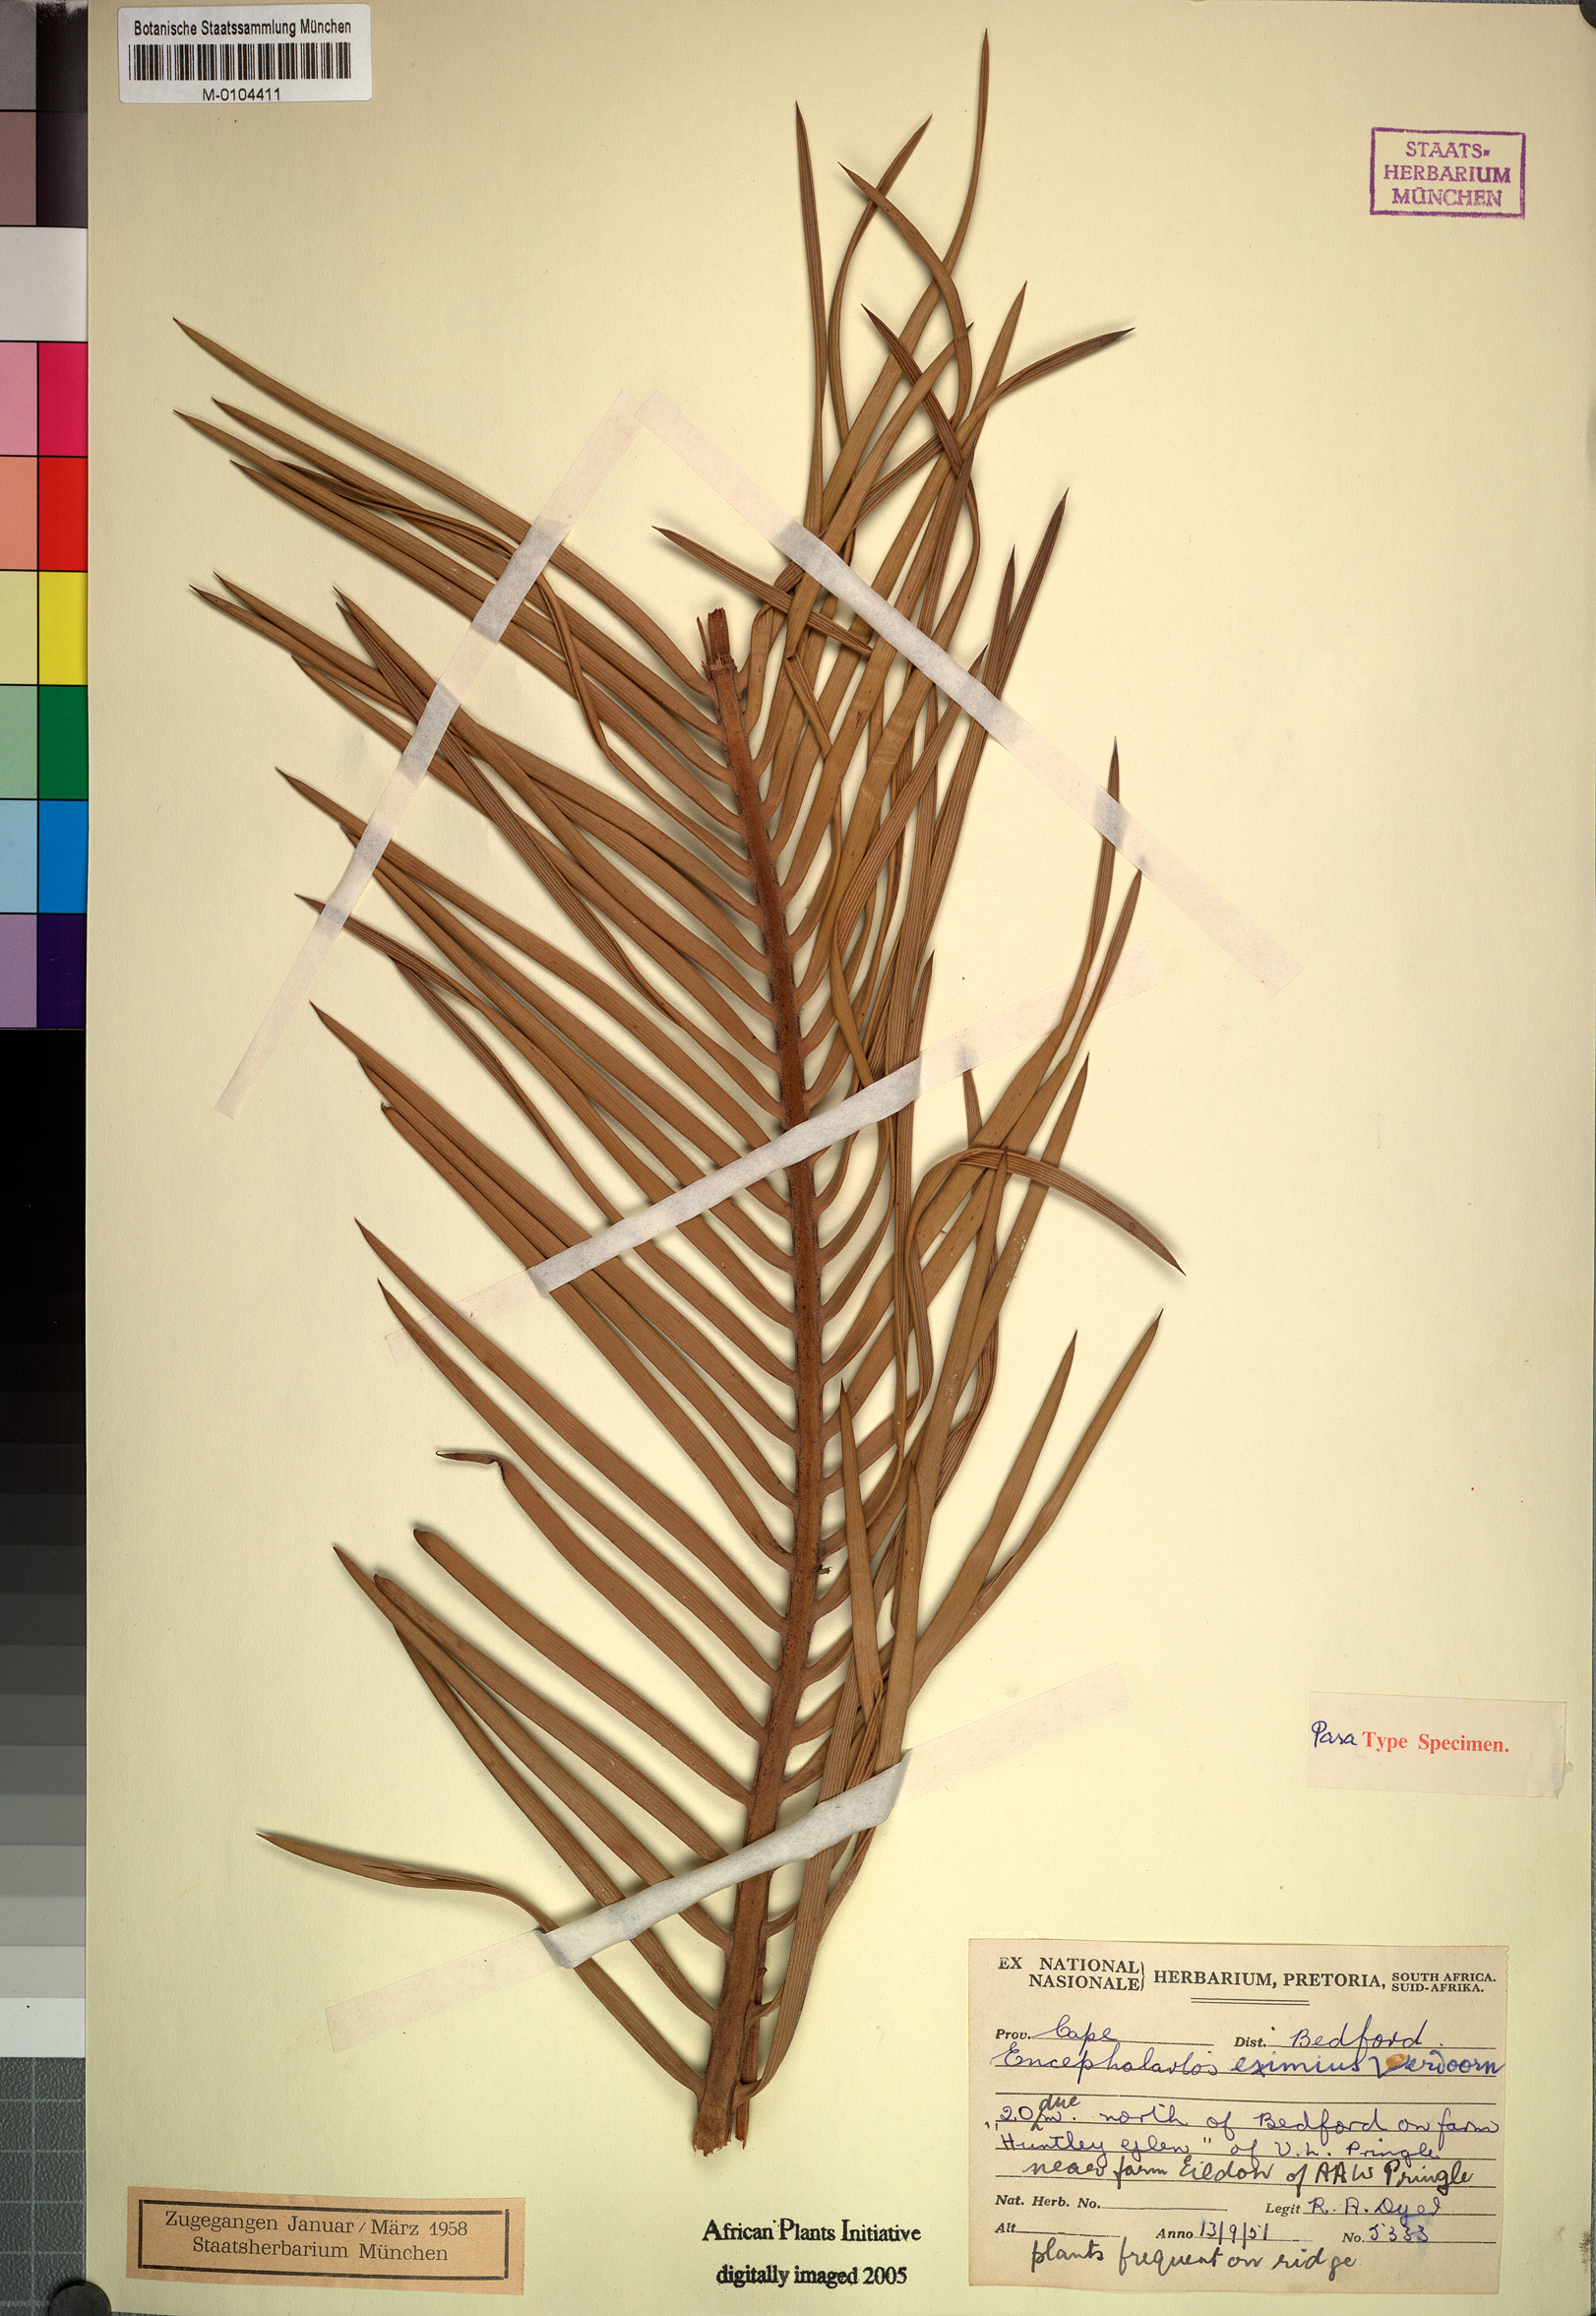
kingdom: Plantae
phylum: Tracheophyta
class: Cycadopsida
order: Cycadales
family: Zamiaceae
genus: Encephalartos
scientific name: Encephalartos cycadifolius
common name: Winterberg cycad
